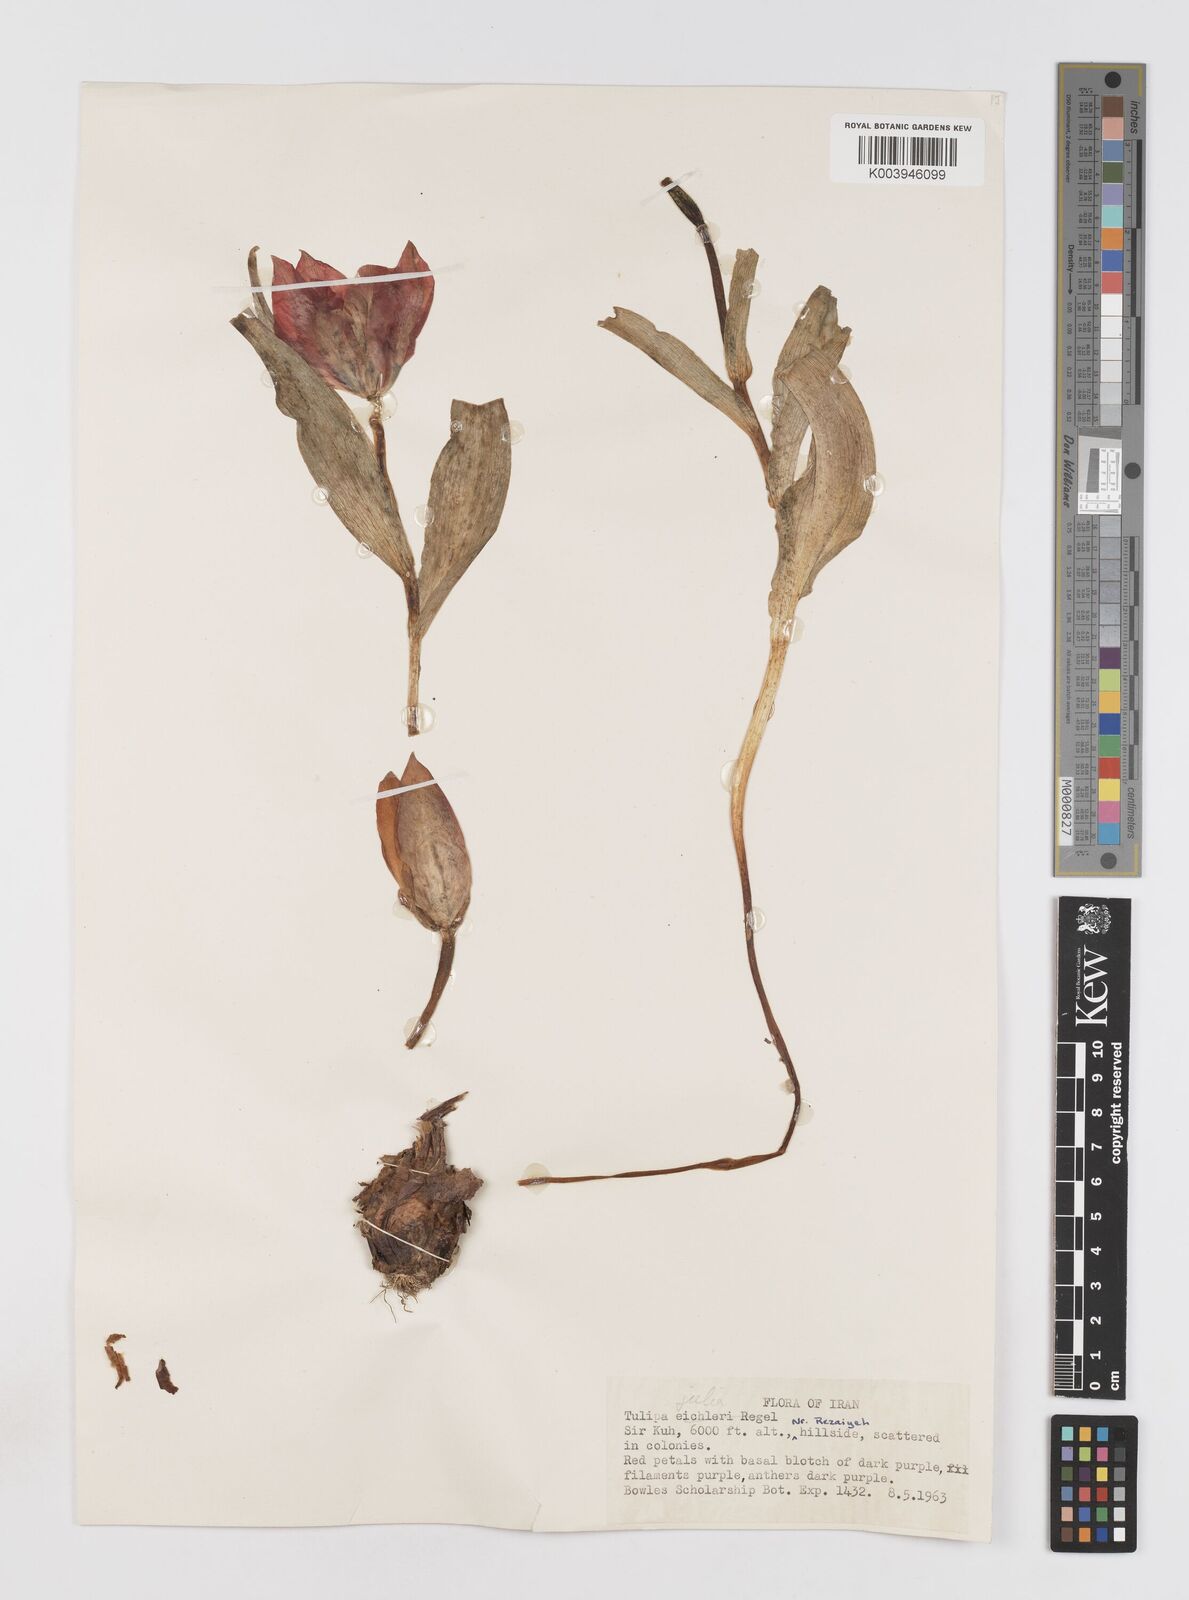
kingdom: Plantae
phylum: Tracheophyta
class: Liliopsida
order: Liliales
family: Liliaceae
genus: Tulipa
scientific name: Tulipa systola
